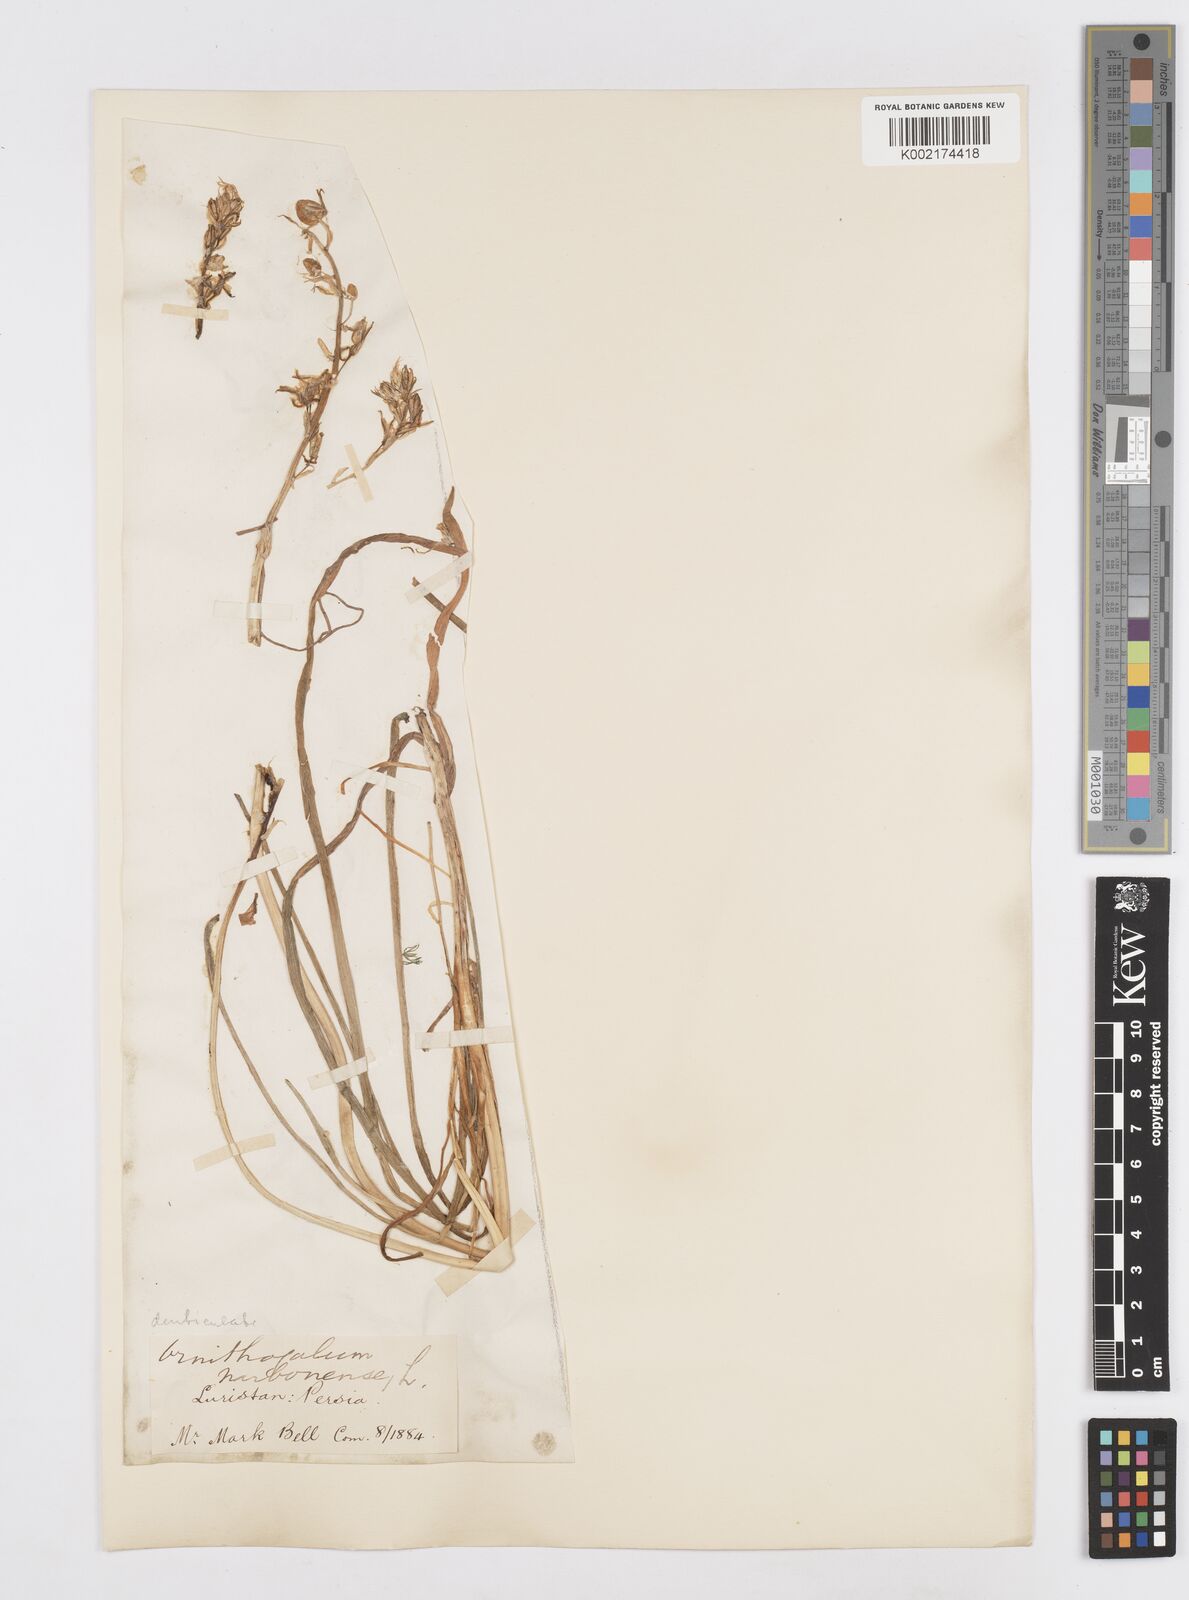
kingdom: Plantae
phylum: Tracheophyta
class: Liliopsida
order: Asparagales
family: Asparagaceae
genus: Ornithogalum
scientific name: Ornithogalum narbonense
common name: Bath-asparagus
